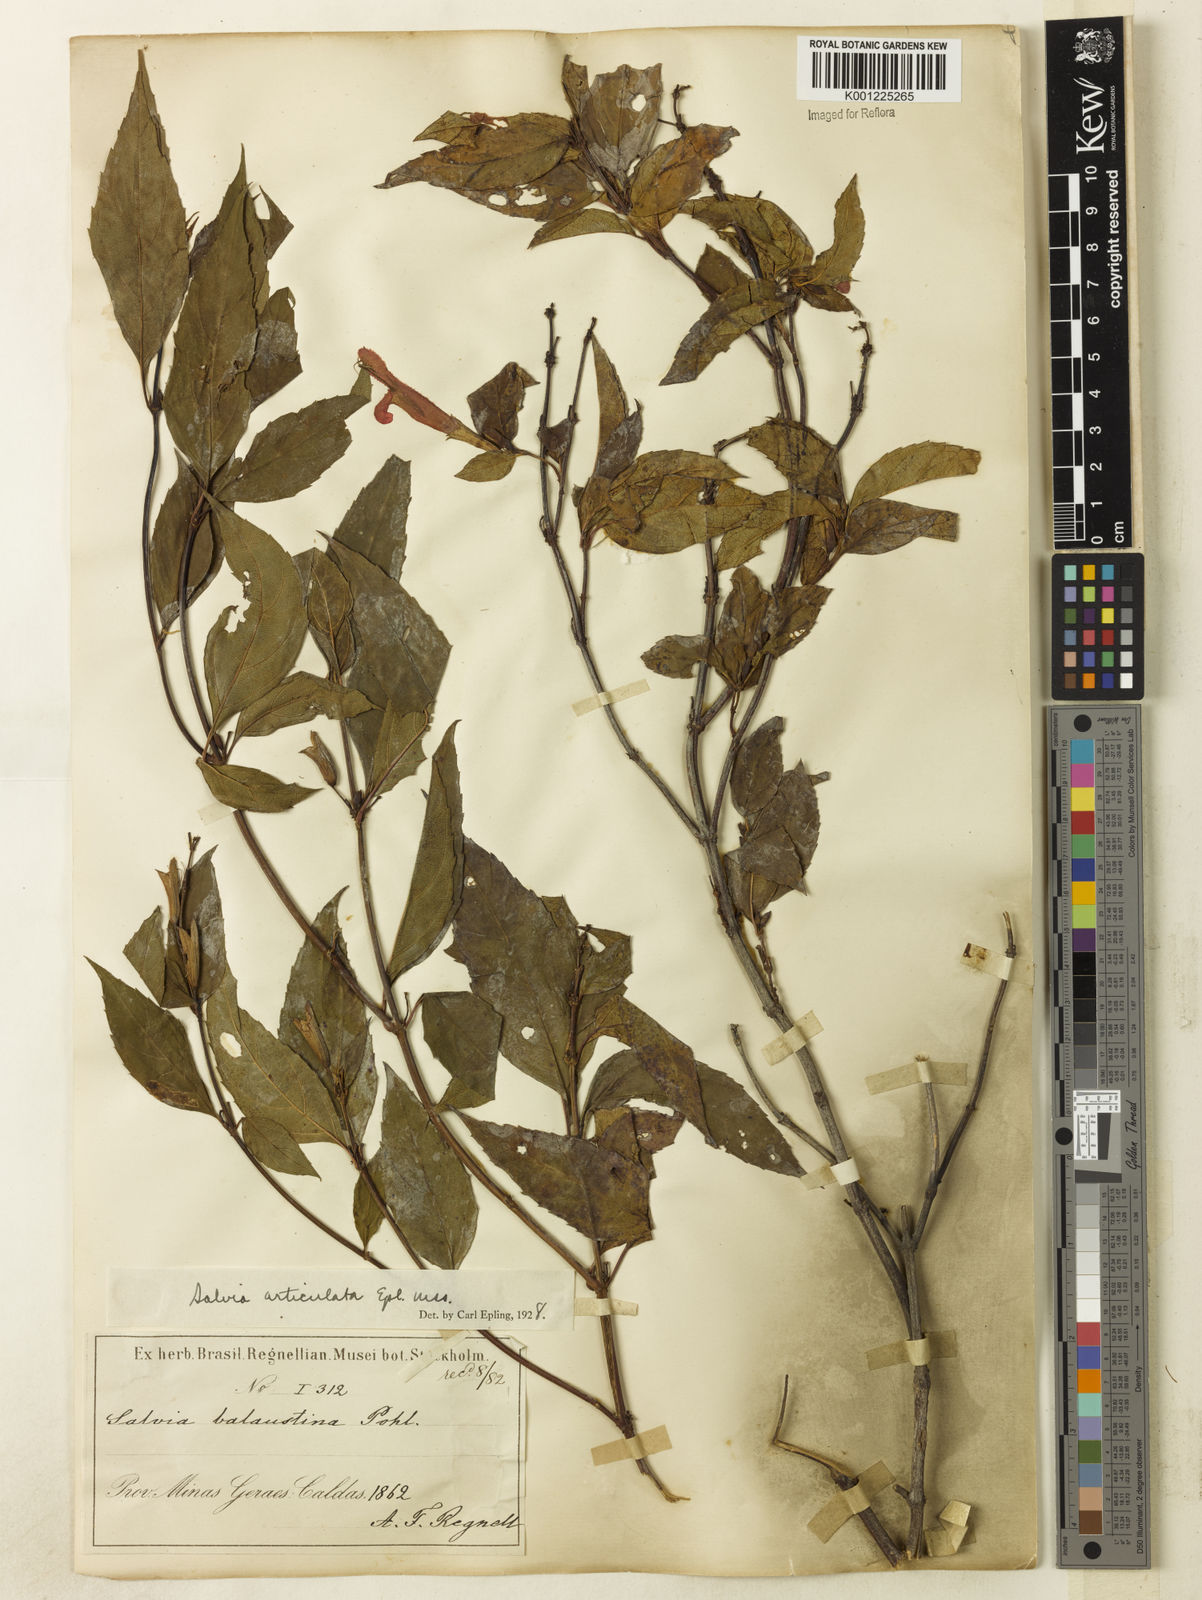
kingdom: Plantae
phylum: Tracheophyta
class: Magnoliopsida
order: Lamiales
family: Lamiaceae
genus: Salvia
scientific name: Salvia articulata
